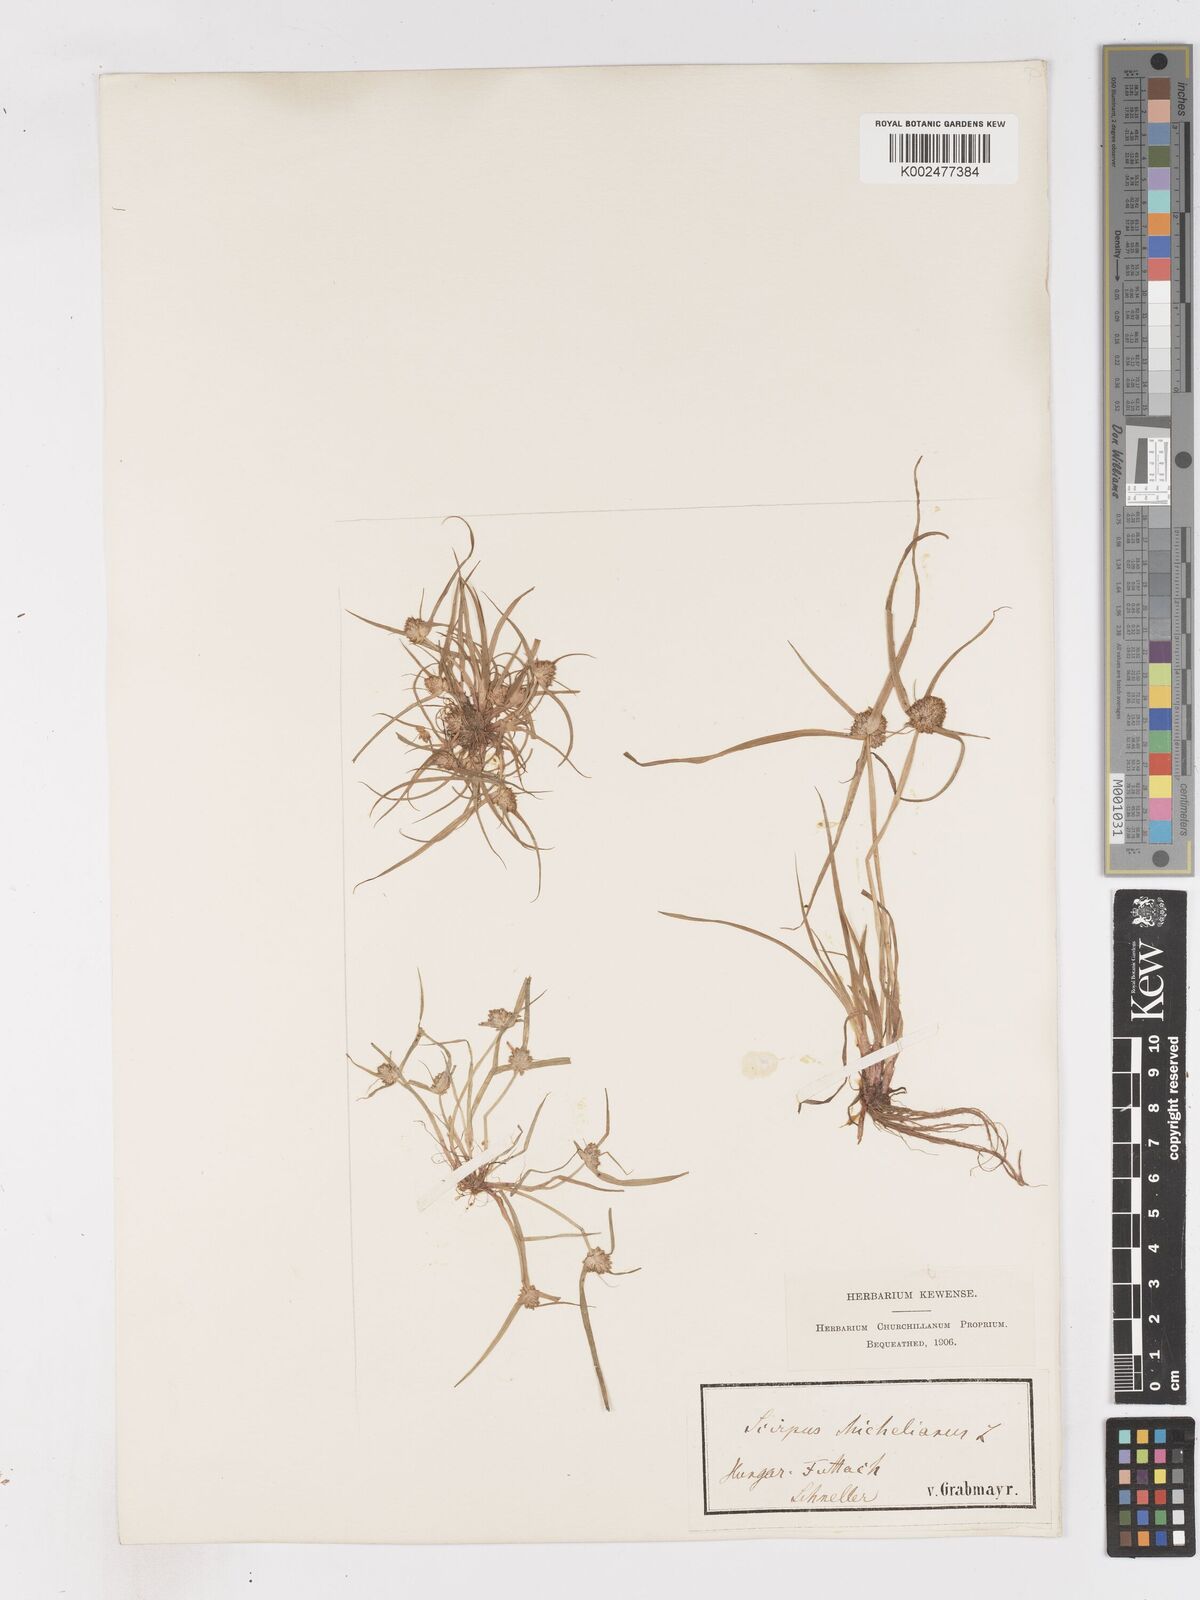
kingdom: Plantae
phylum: Tracheophyta
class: Liliopsida
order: Poales
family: Cyperaceae
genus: Cyperus
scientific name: Cyperus michelianus
